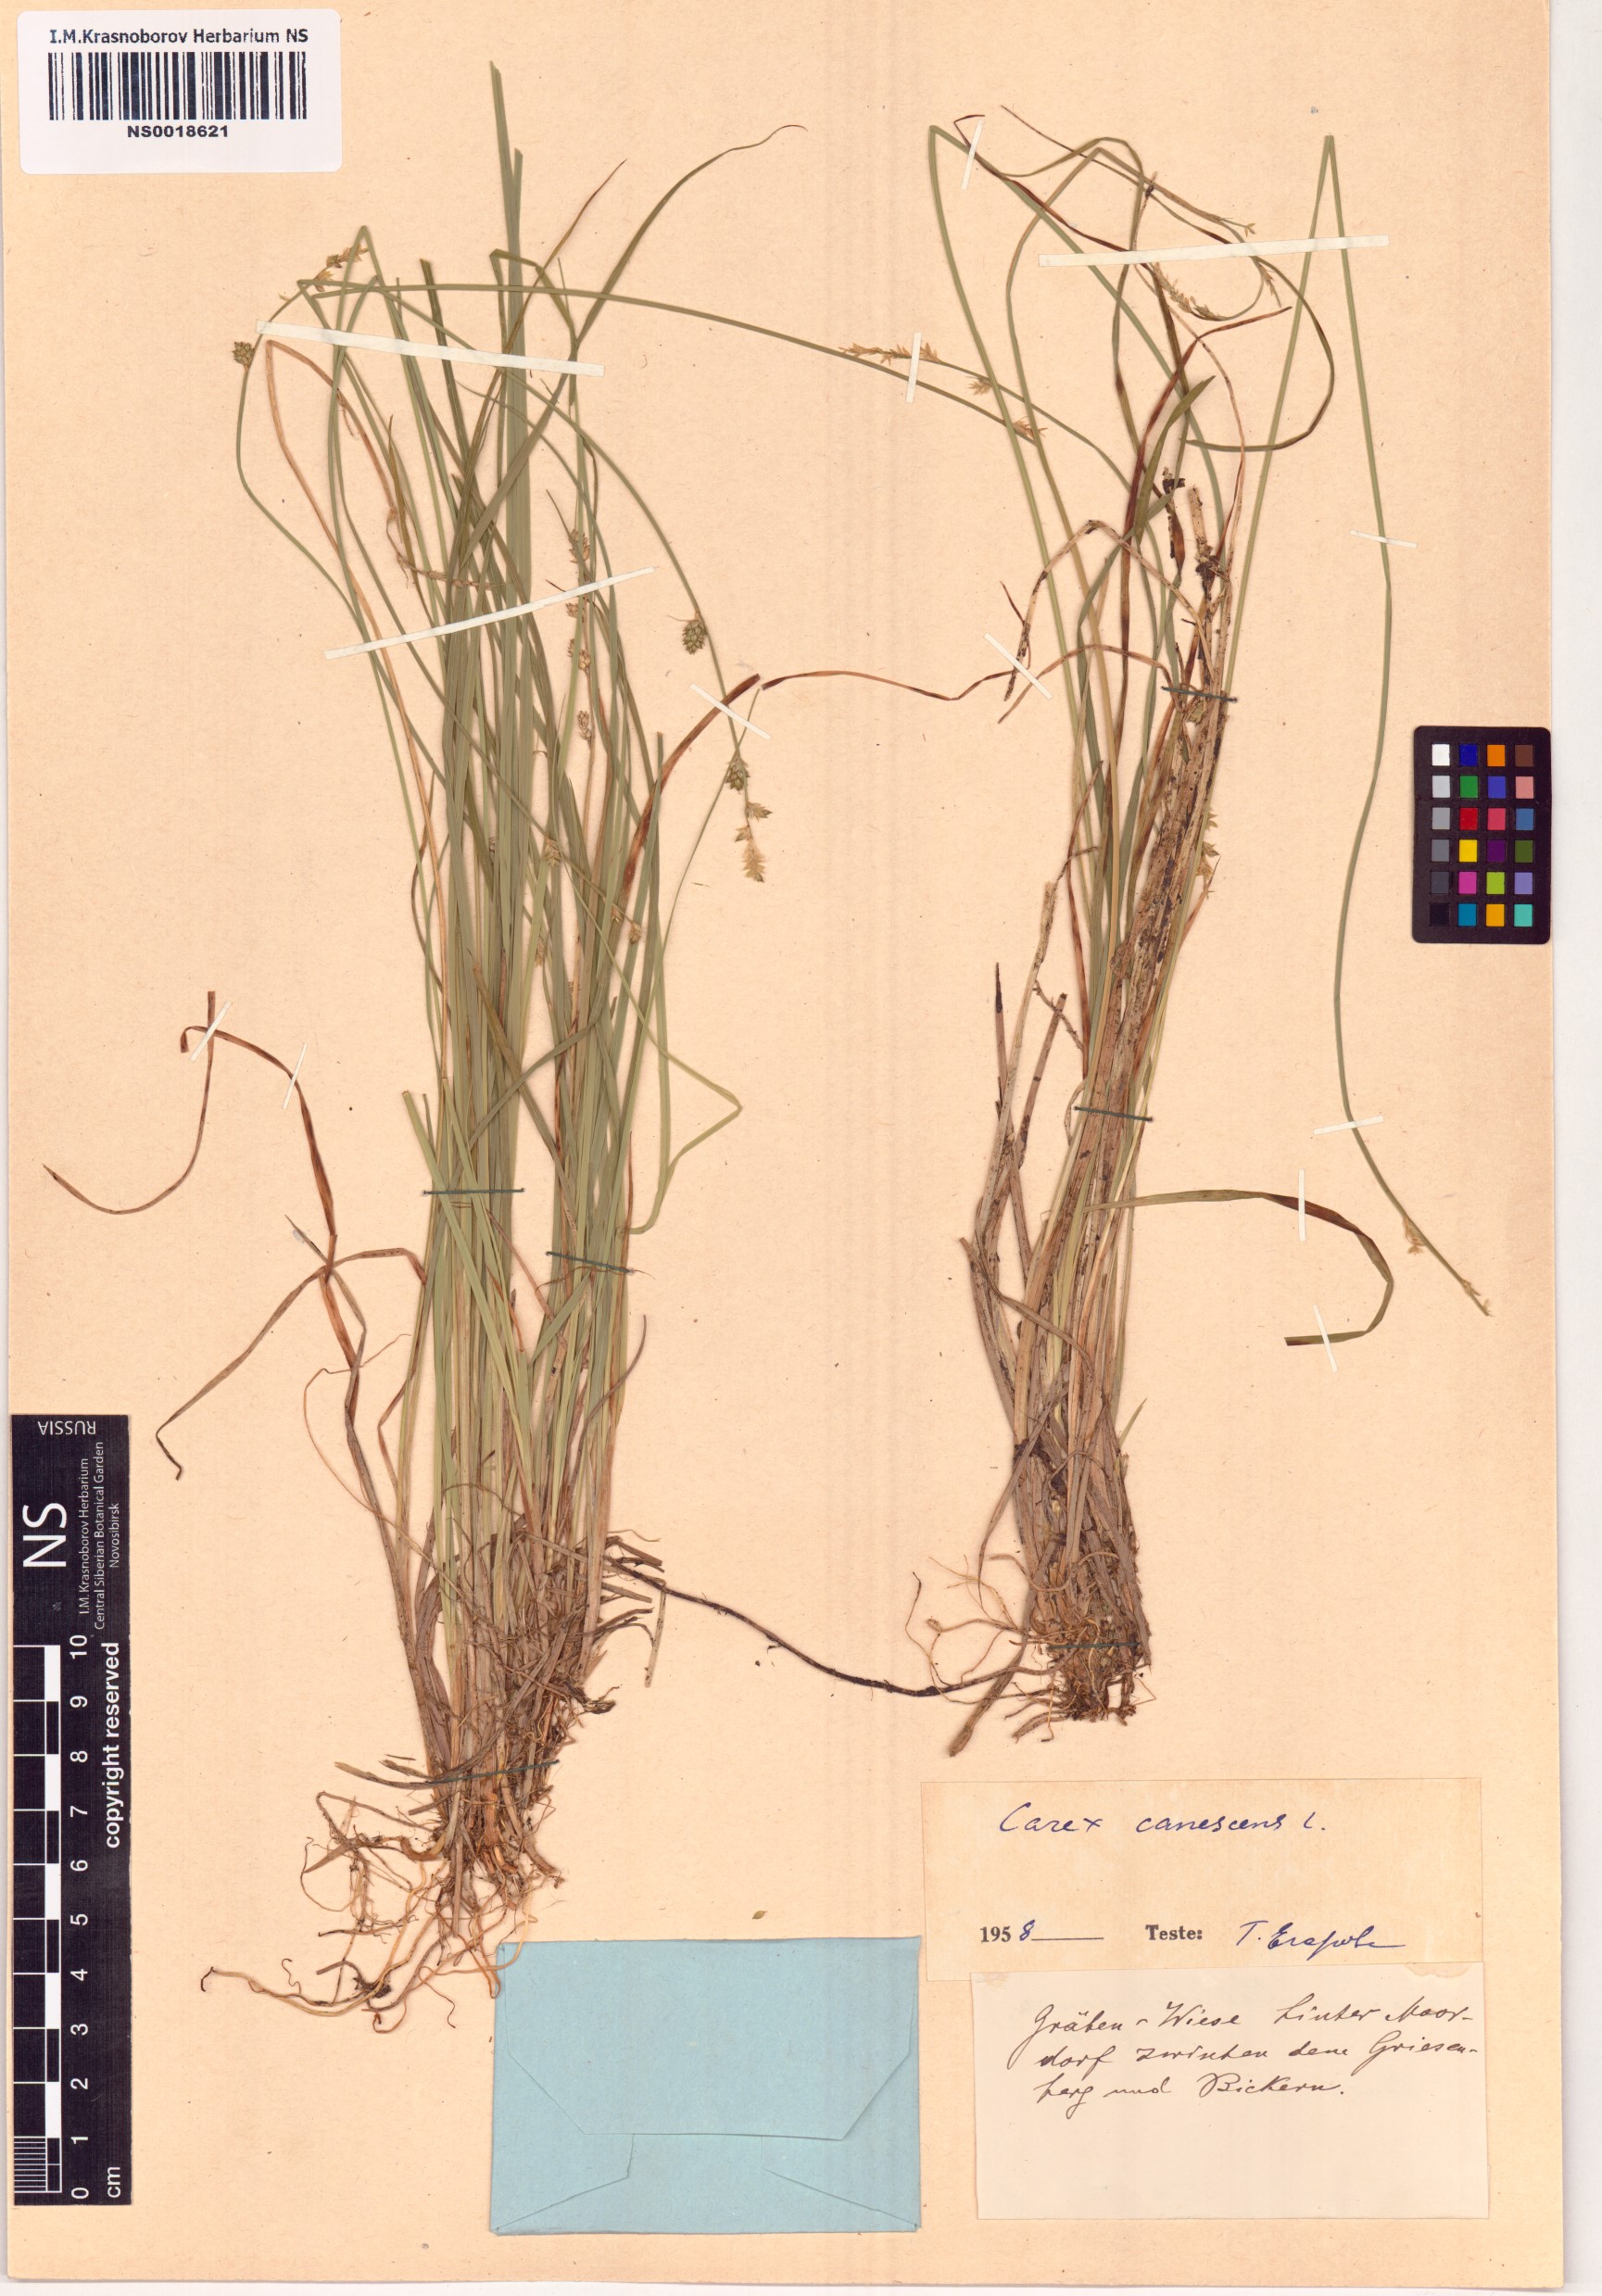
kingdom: Plantae
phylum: Tracheophyta
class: Liliopsida
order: Poales
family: Cyperaceae
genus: Carex
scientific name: Carex canescens
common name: White sedge
